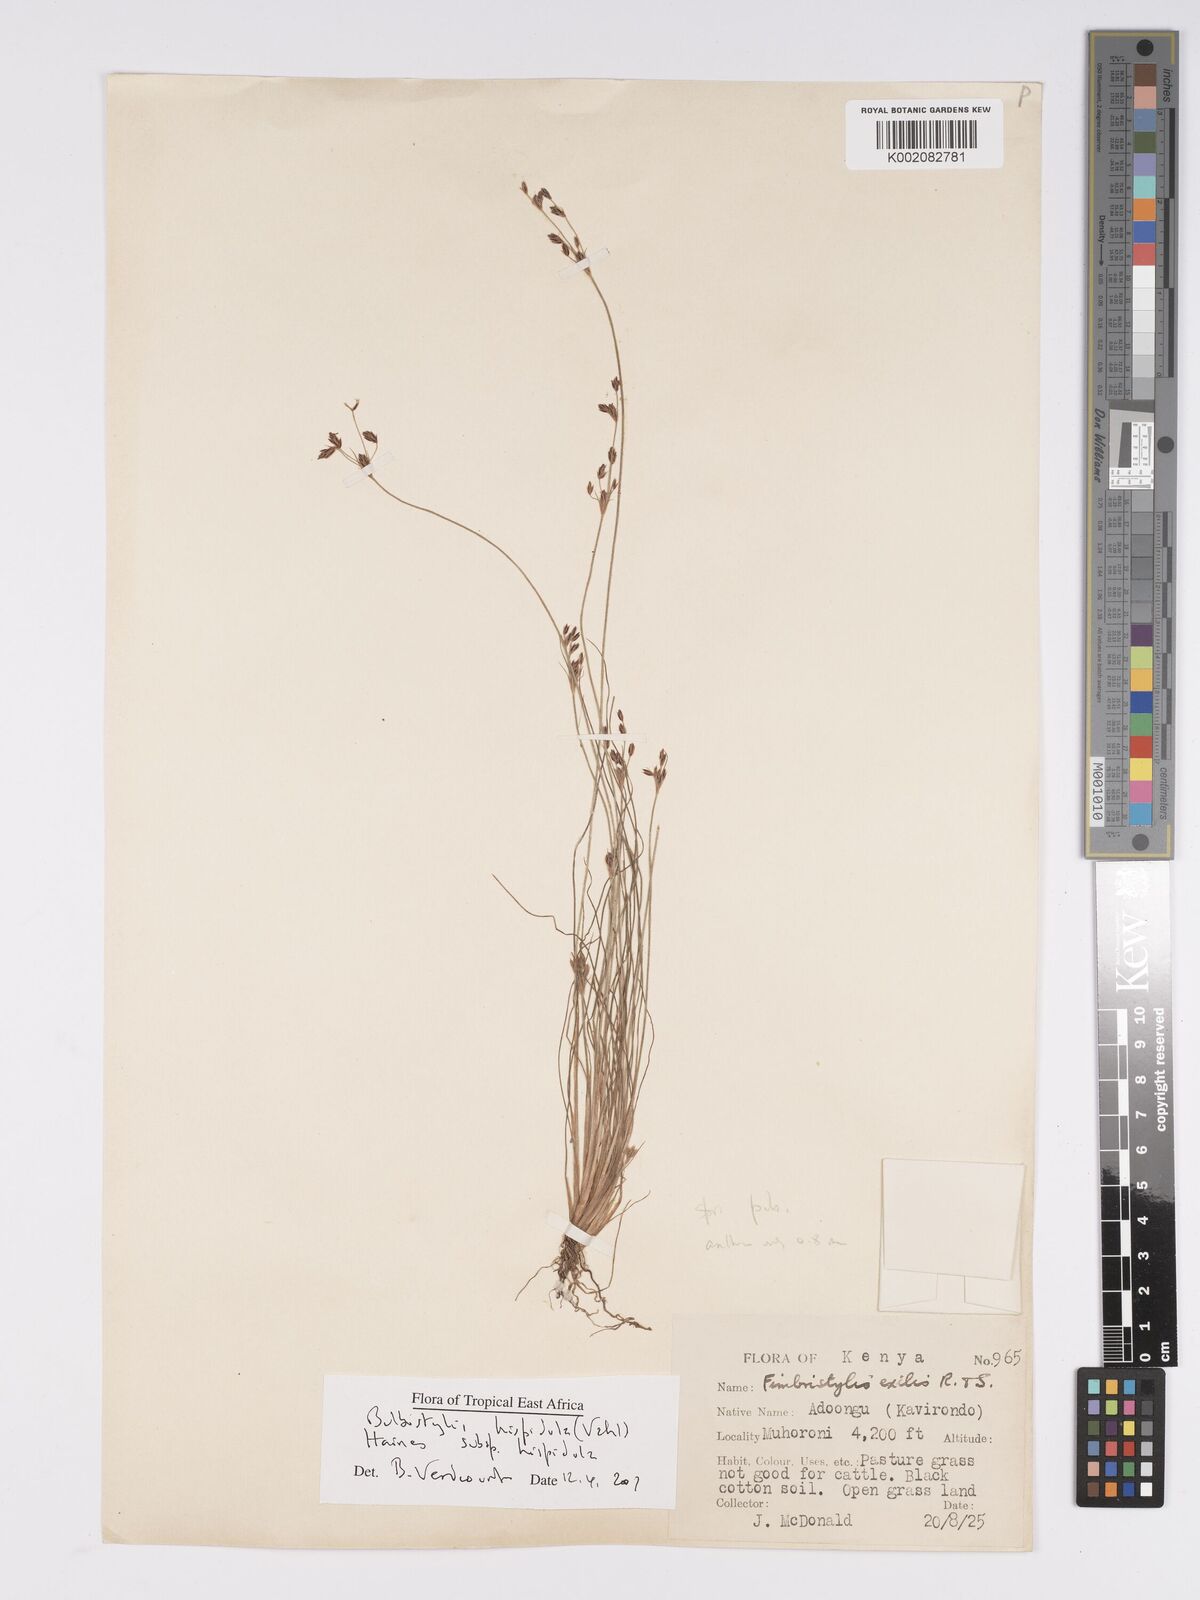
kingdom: Plantae
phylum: Tracheophyta
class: Liliopsida
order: Poales
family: Cyperaceae
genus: Bulbostylis
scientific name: Bulbostylis hispidula
